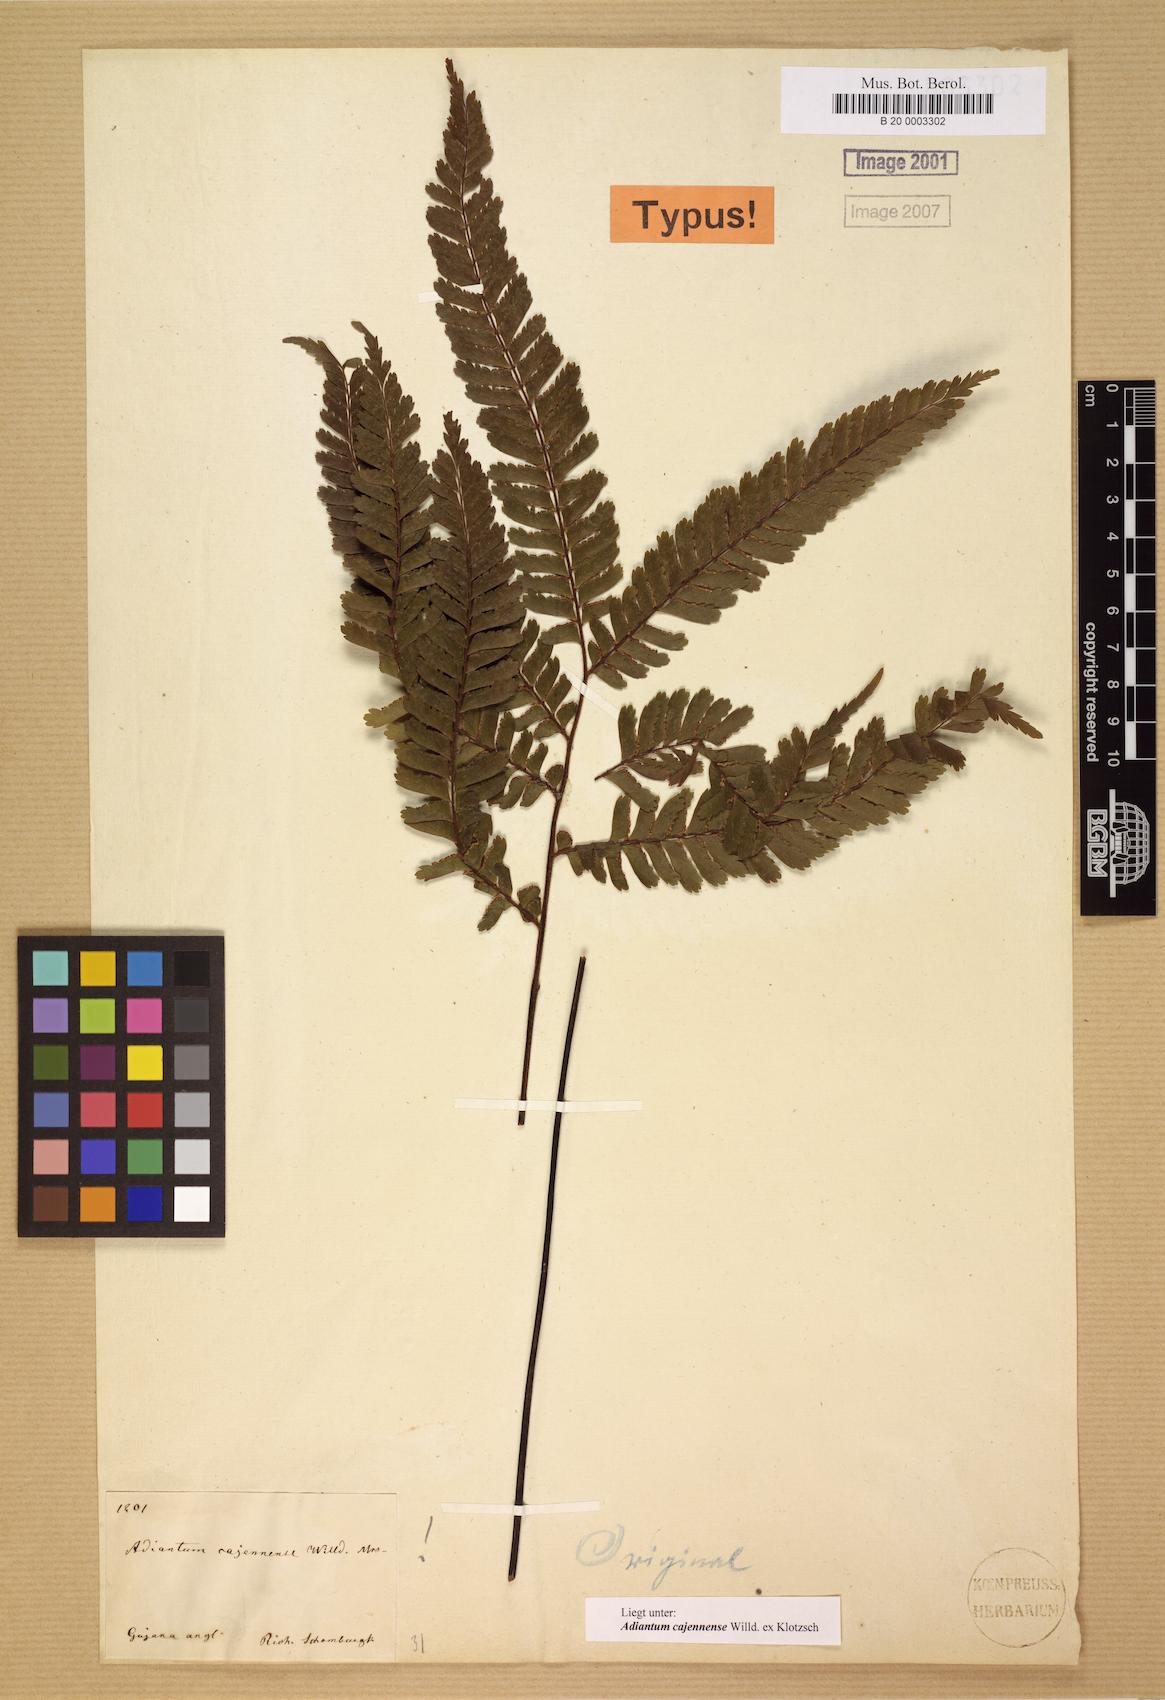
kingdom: Plantae
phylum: Tracheophyta
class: Polypodiopsida
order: Polypodiales
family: Pteridaceae
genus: Adiantum
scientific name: Adiantum cajennense
